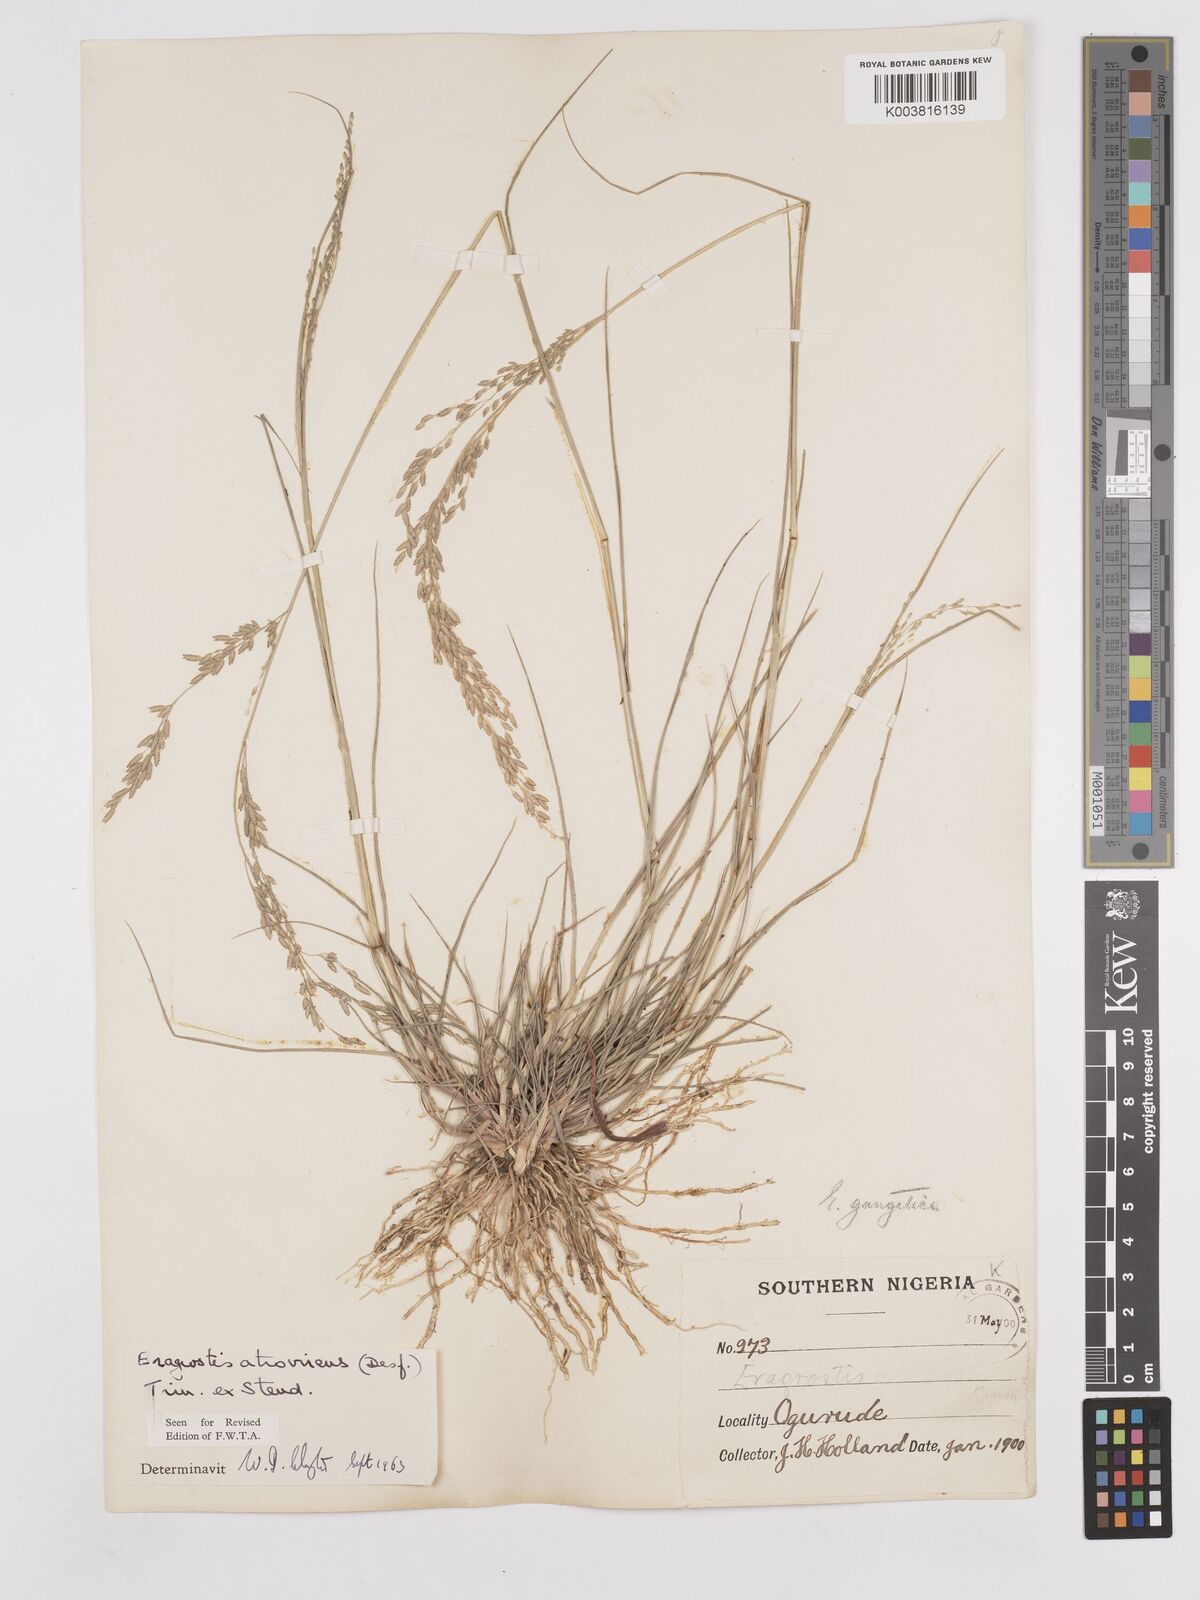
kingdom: Plantae
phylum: Tracheophyta
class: Liliopsida
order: Poales
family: Poaceae
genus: Eragrostis
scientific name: Eragrostis atrovirens
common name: Thalia lovegrass
